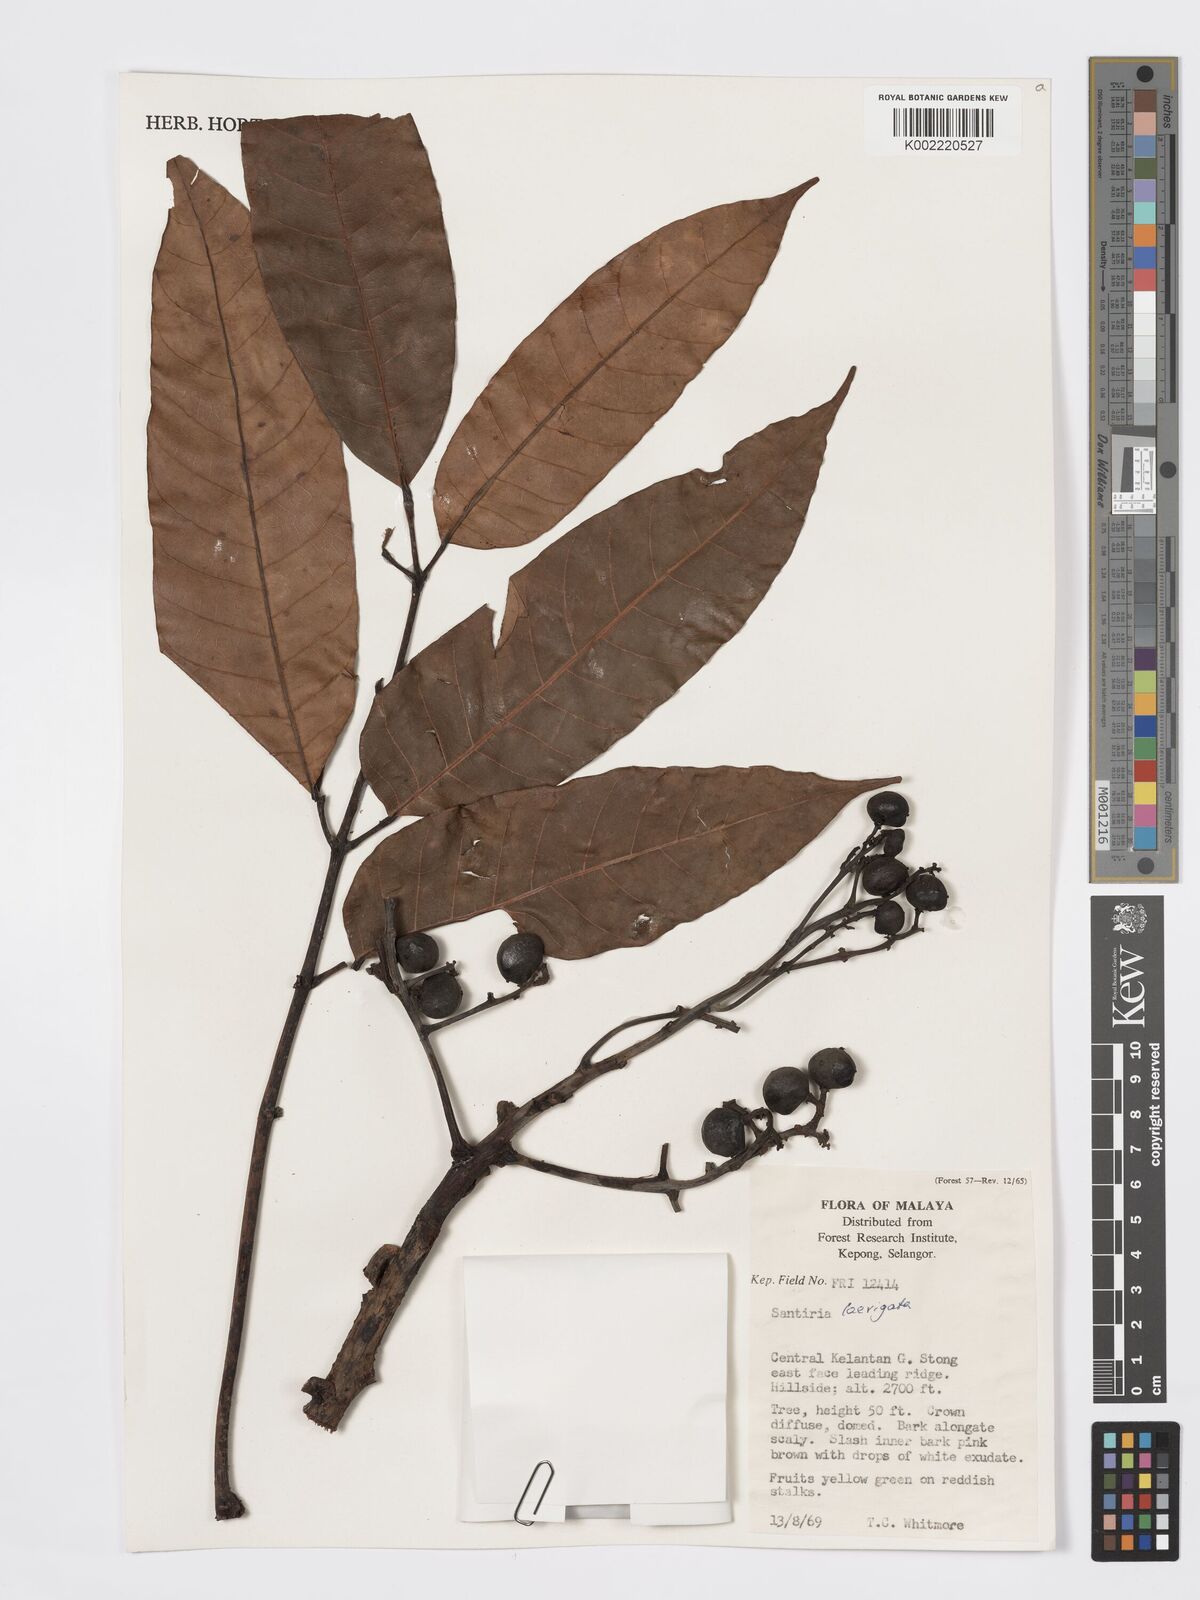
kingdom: Plantae
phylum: Tracheophyta
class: Magnoliopsida
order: Sapindales
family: Burseraceae
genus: Santiria
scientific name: Santiria laevigata
